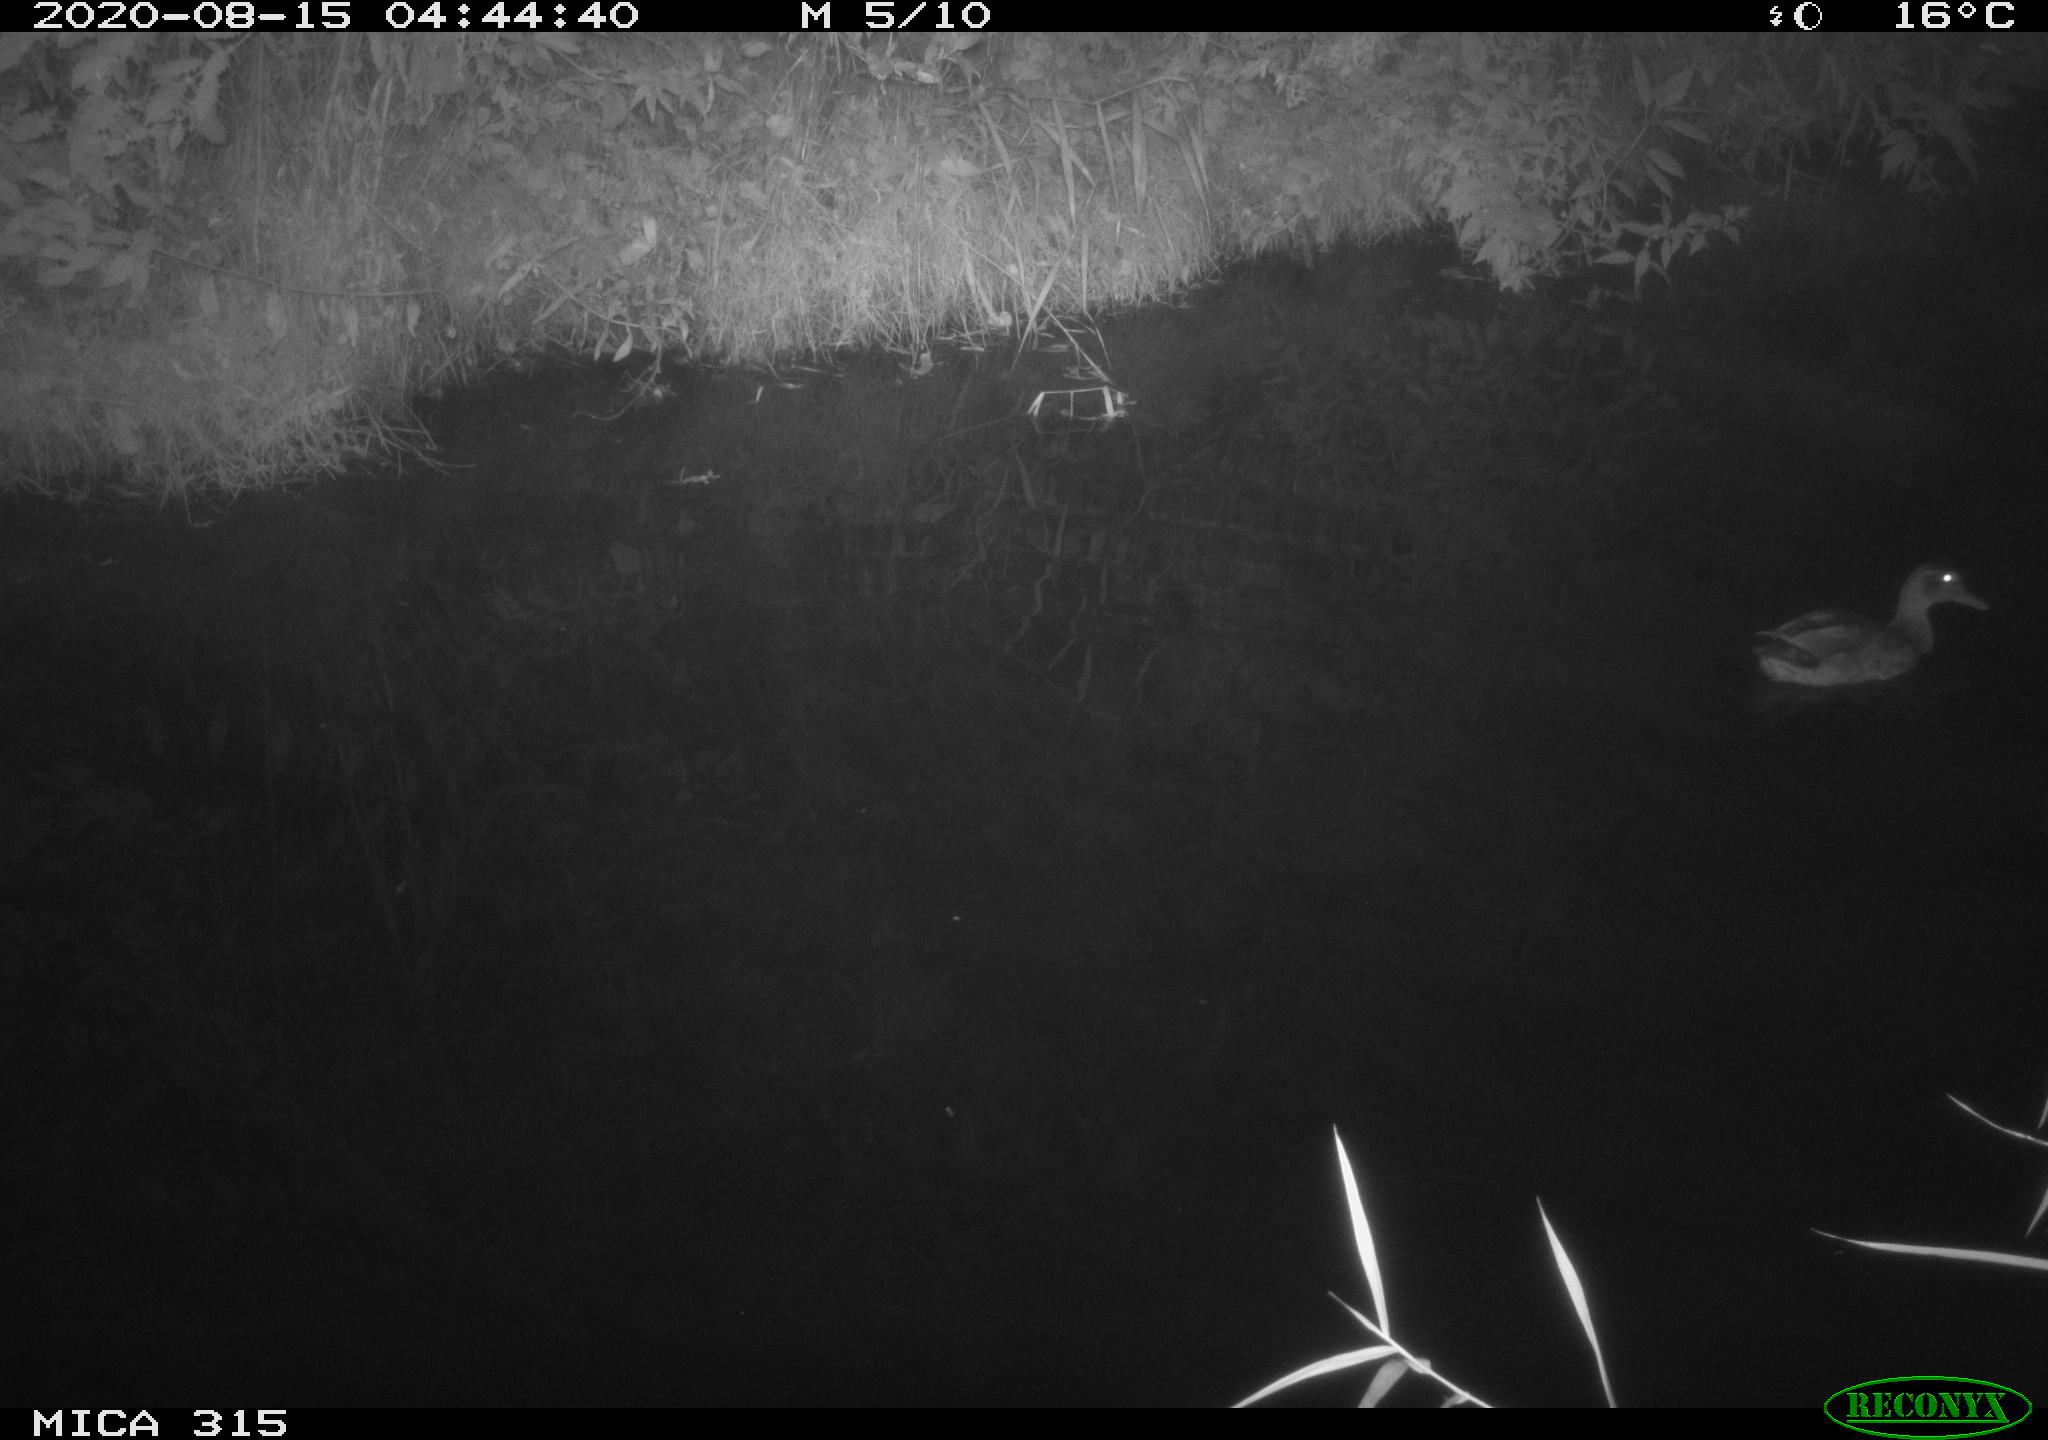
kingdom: Animalia
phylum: Chordata
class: Aves
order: Anseriformes
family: Anatidae
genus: Anas
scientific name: Anas platyrhynchos
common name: Mallard
